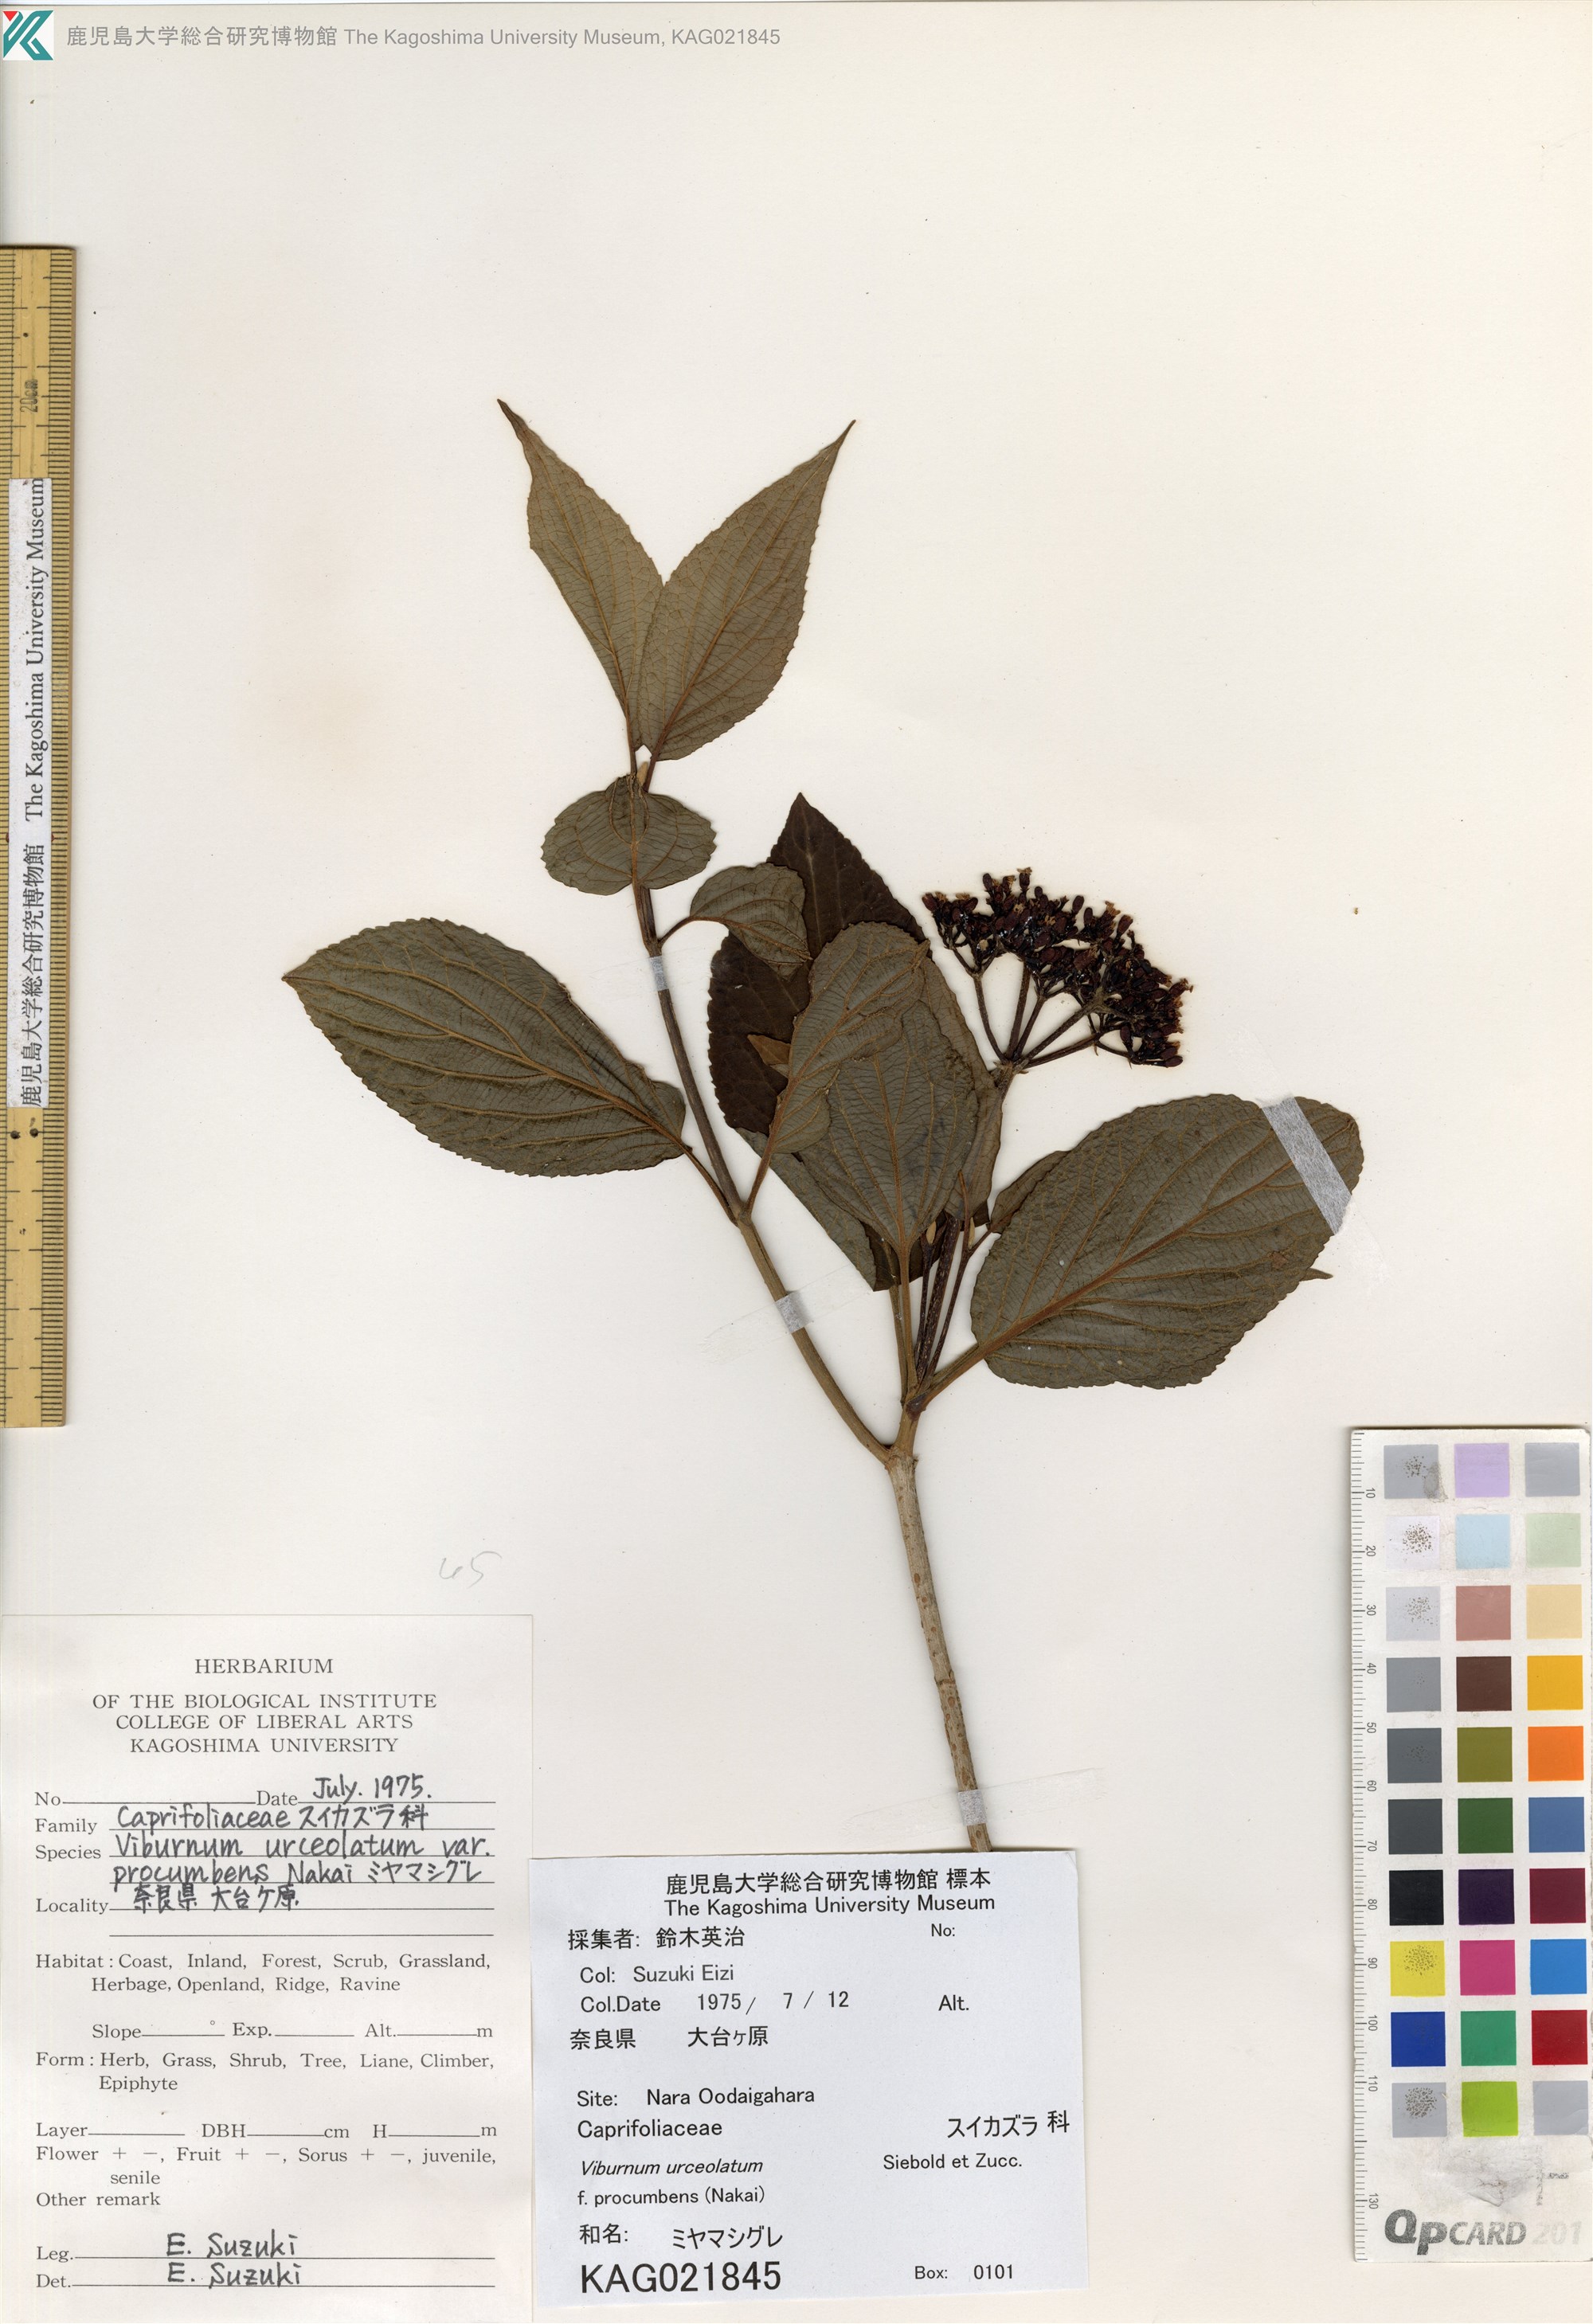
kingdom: Plantae
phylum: Tracheophyta
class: Magnoliopsida
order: Dipsacales
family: Viburnaceae
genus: Viburnum
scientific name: Viburnum urceolatum
